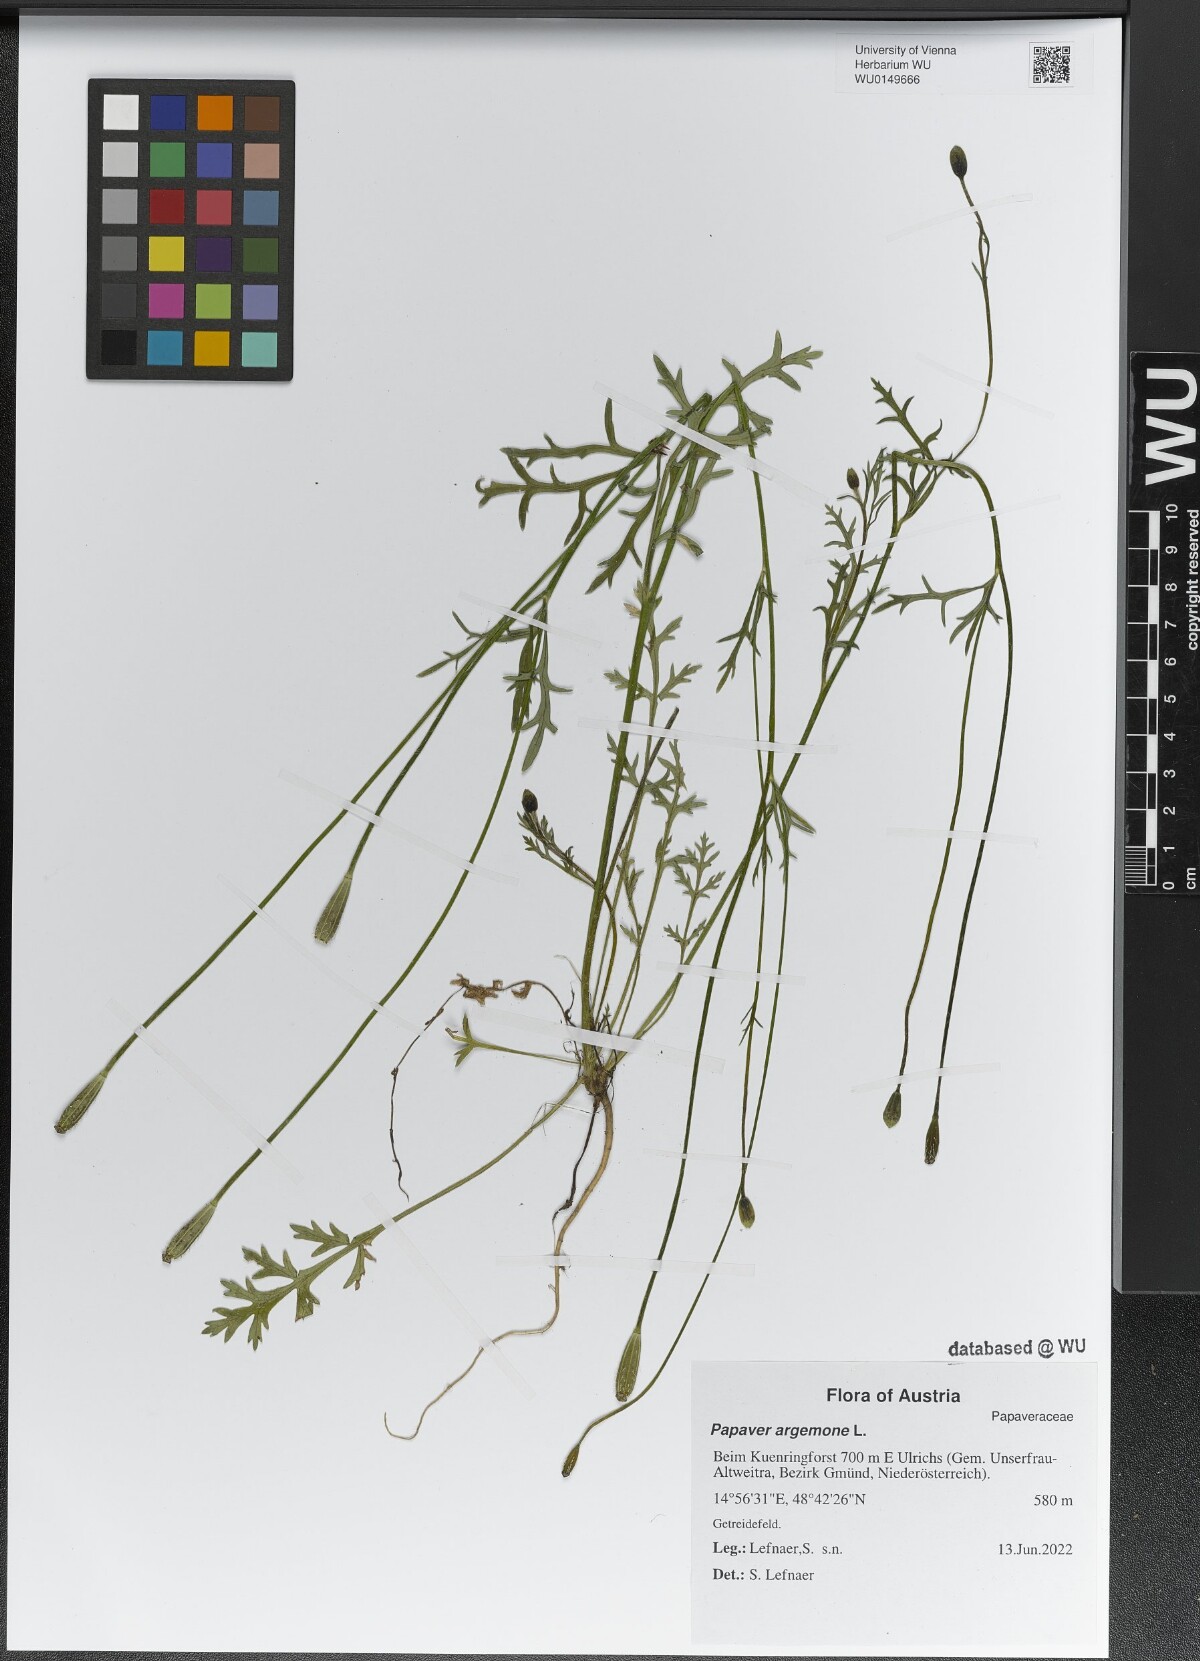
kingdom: Plantae
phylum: Tracheophyta
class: Magnoliopsida
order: Ranunculales
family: Papaveraceae
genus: Roemeria
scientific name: Roemeria argemone
